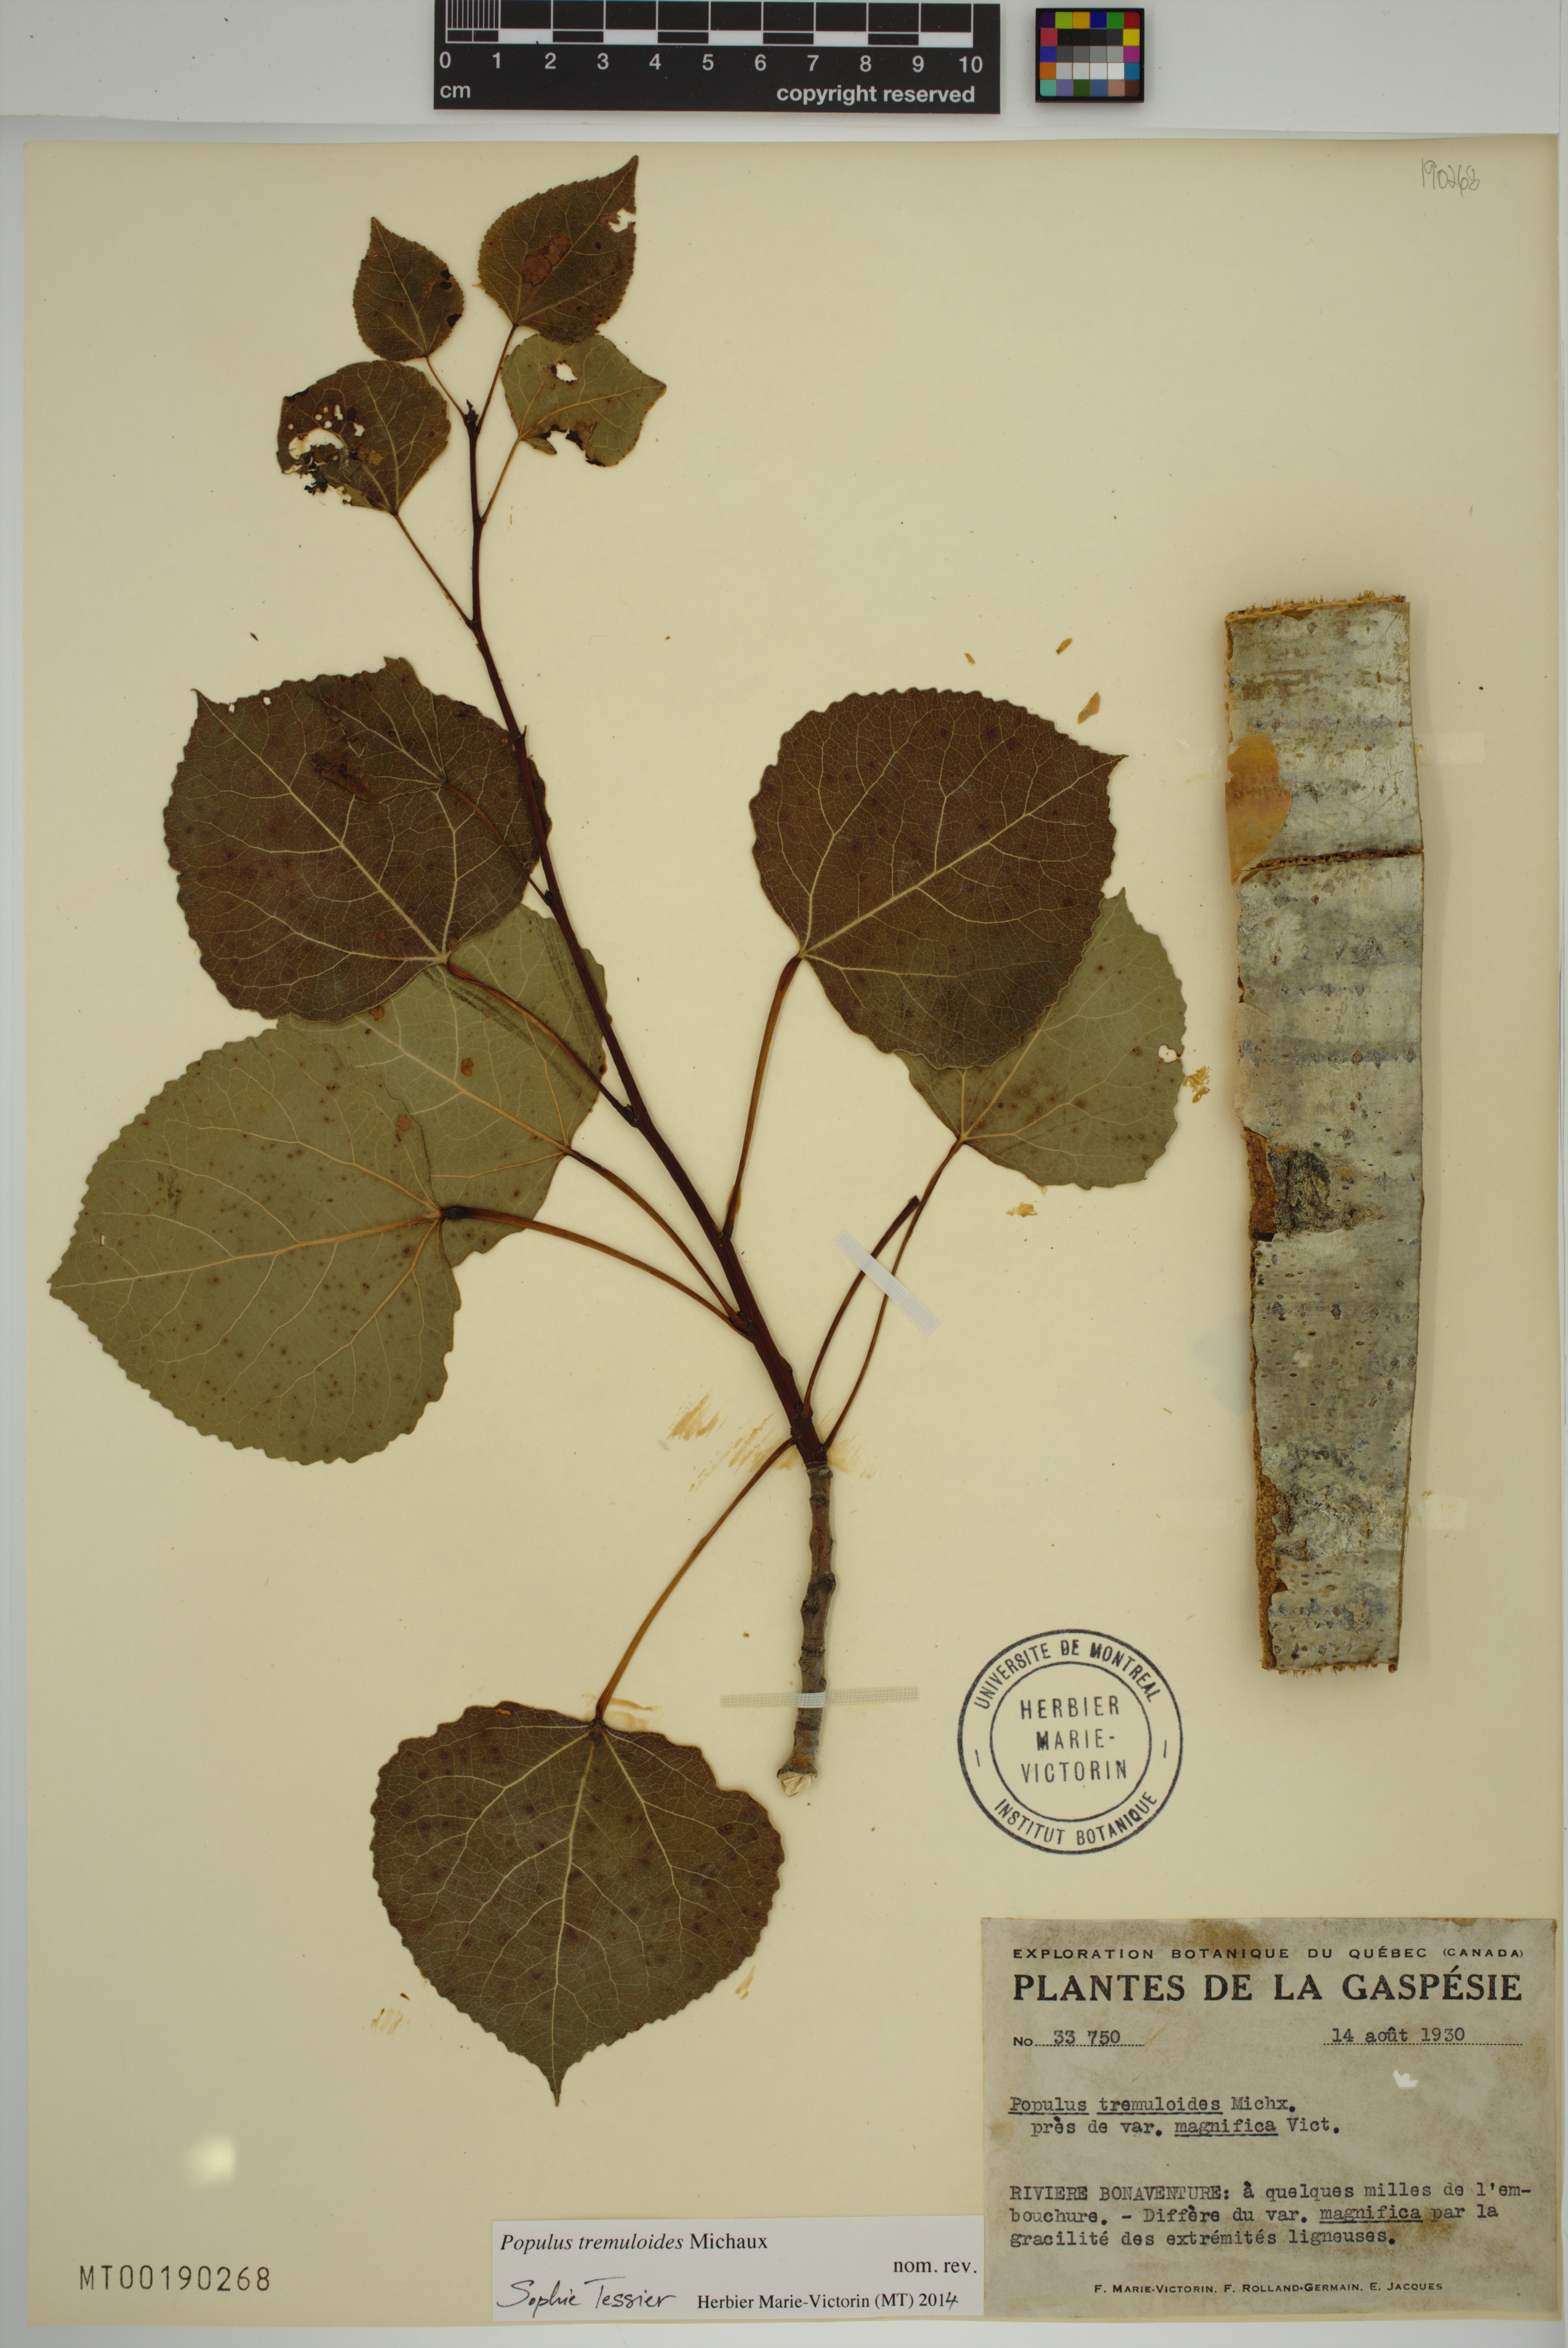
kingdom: Plantae
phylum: Tracheophyta
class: Magnoliopsida
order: Malpighiales
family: Salicaceae
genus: Populus
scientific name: Populus tremuloides
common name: Quaking aspen
